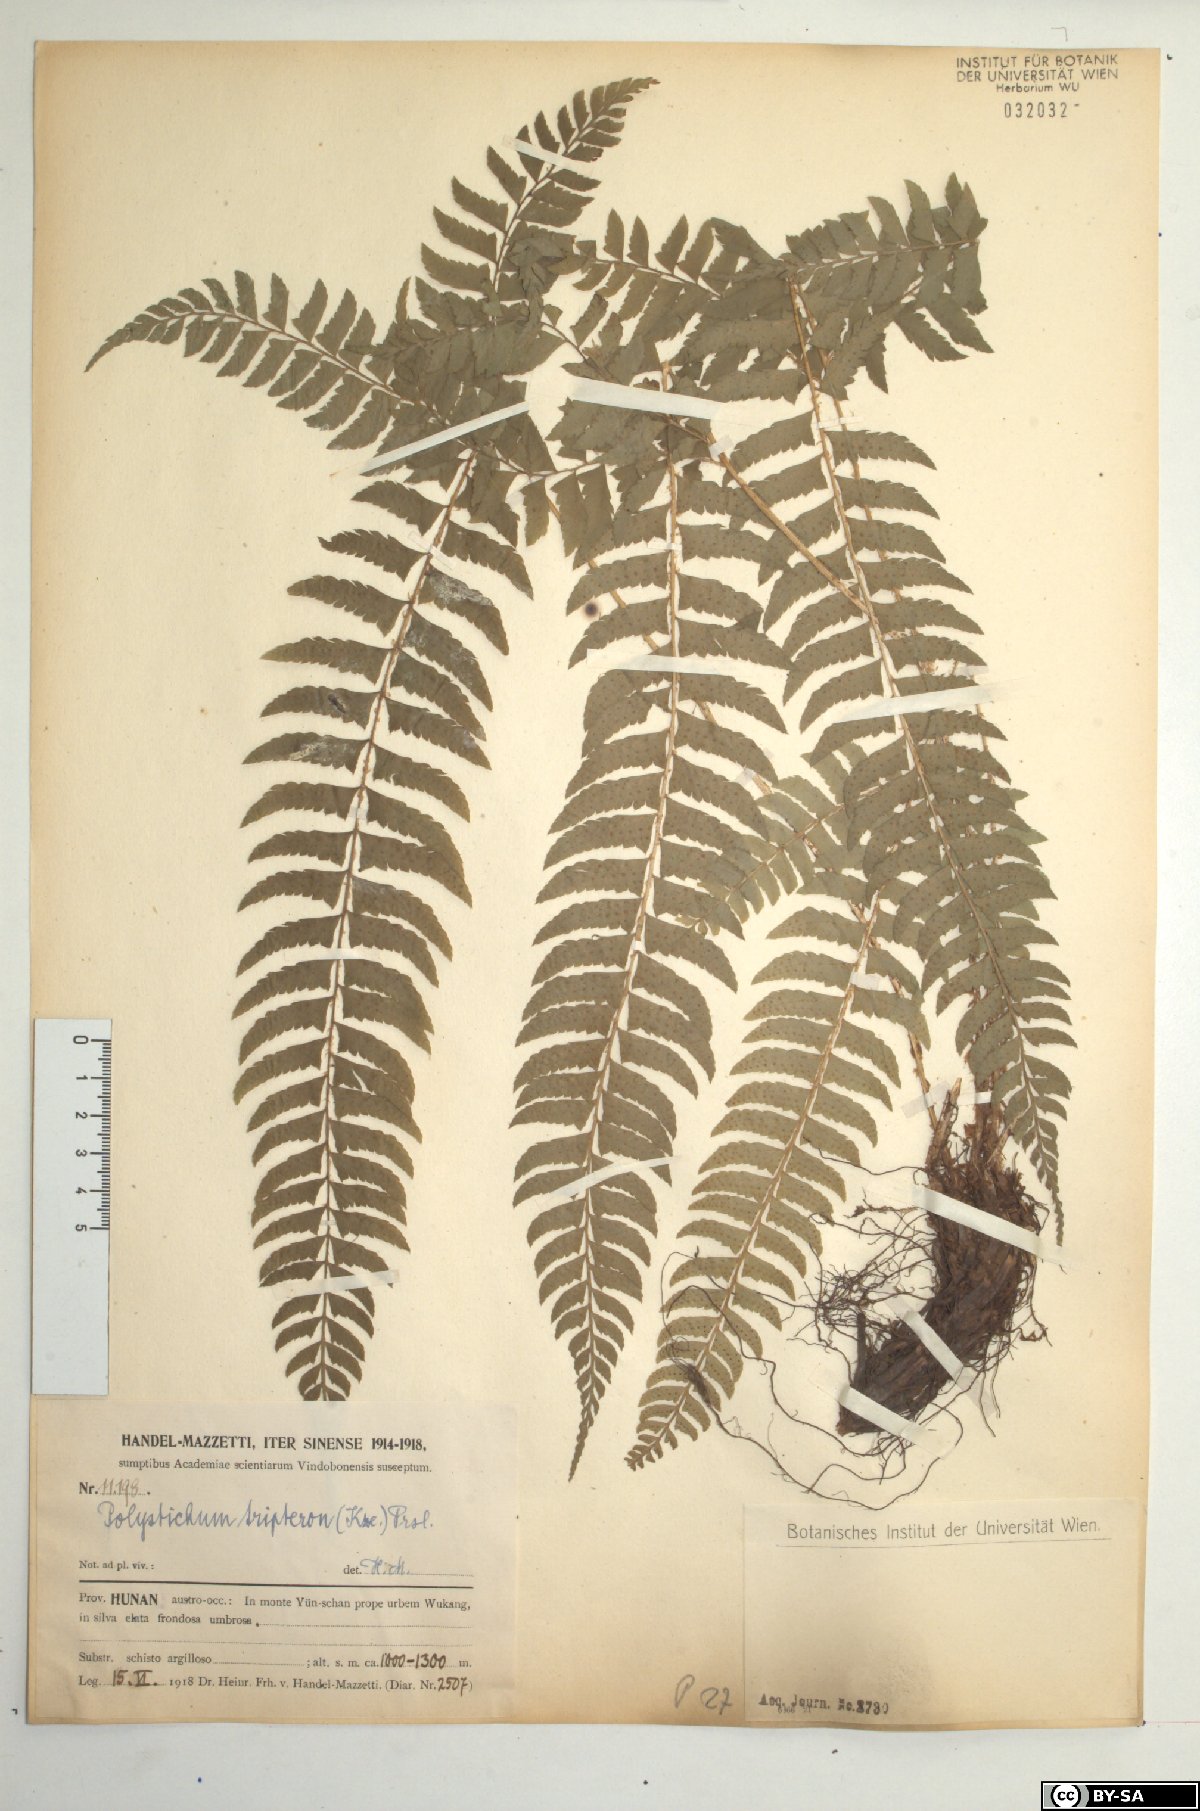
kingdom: Plantae
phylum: Tracheophyta
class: Polypodiopsida
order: Polypodiales
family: Dryopteridaceae
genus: Polystichum
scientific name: Polystichum tripteron
